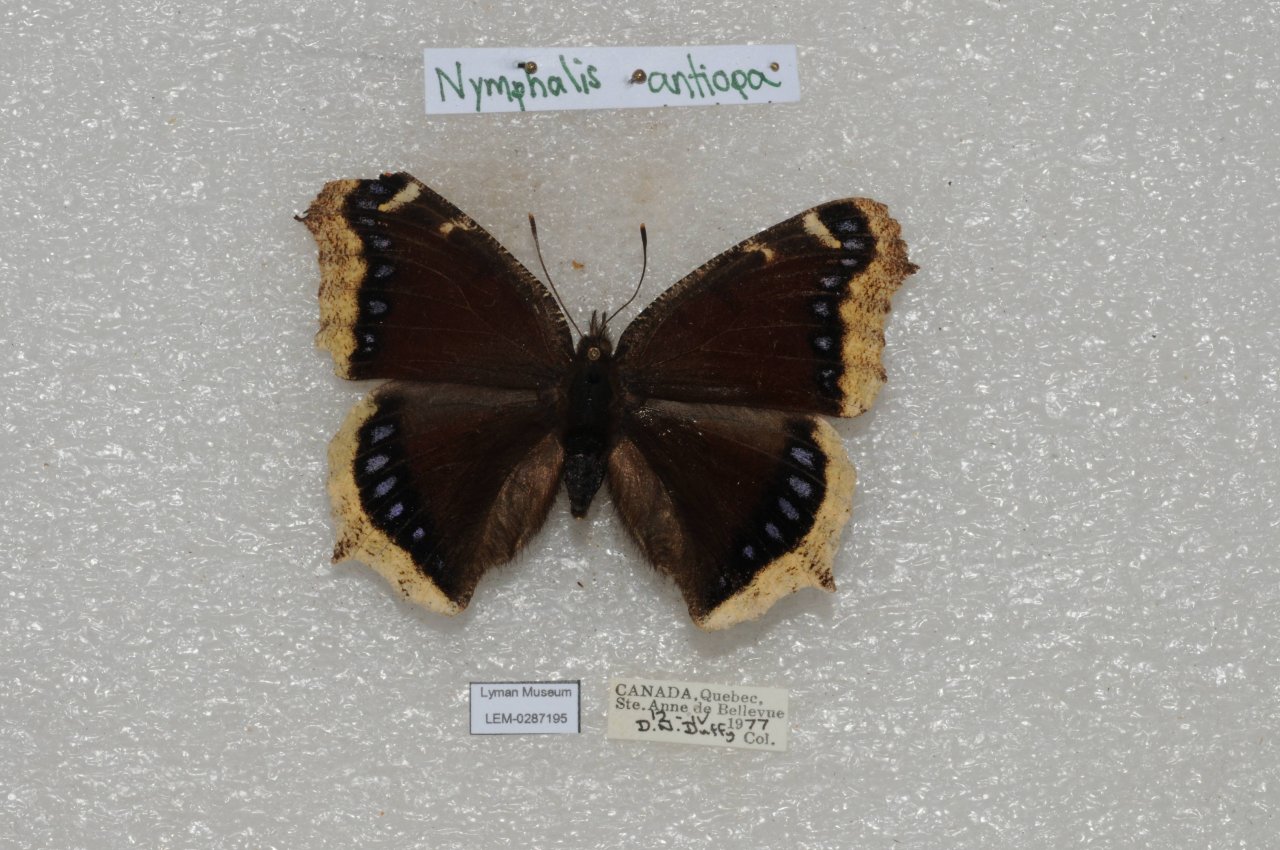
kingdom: Animalia
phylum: Arthropoda
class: Insecta
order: Lepidoptera
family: Nymphalidae
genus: Nymphalis
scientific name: Nymphalis antiopa
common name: Mourning Cloak
